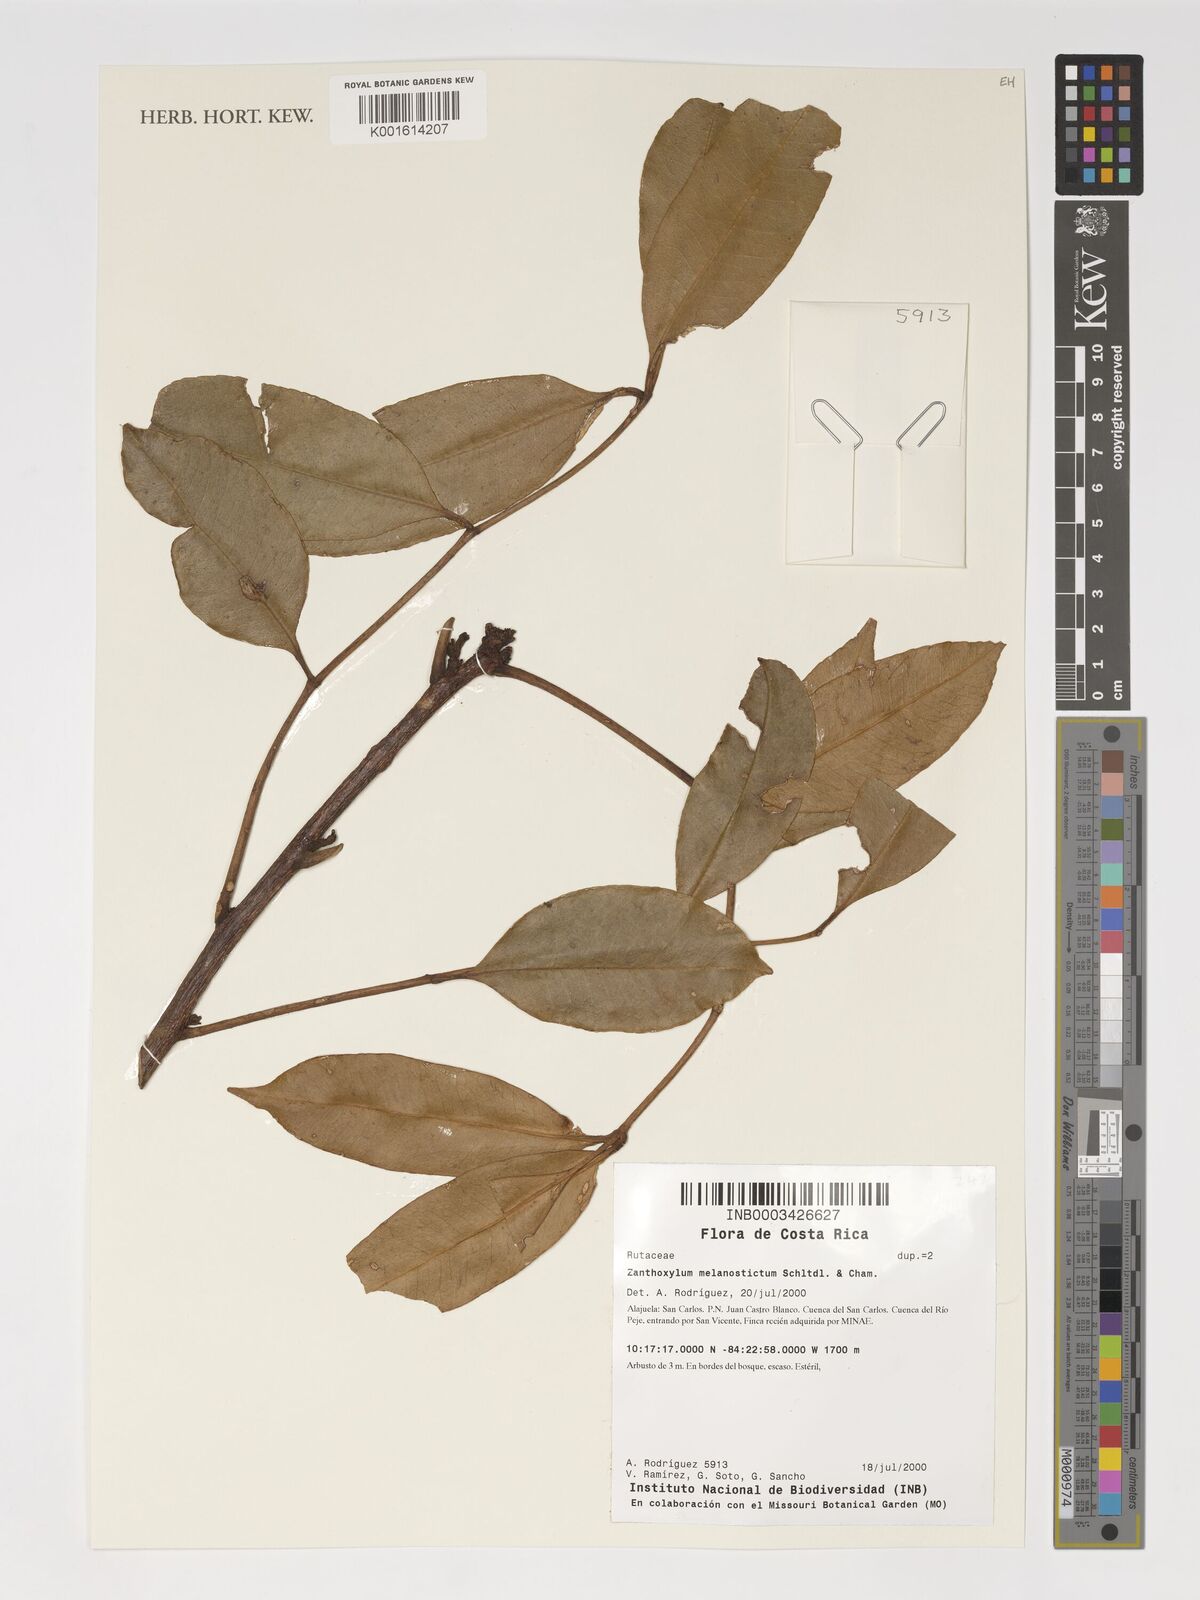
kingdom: Plantae
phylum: Tracheophyta
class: Magnoliopsida
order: Sapindales
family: Rutaceae
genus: Zanthoxylum
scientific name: Zanthoxylum melanostictum
